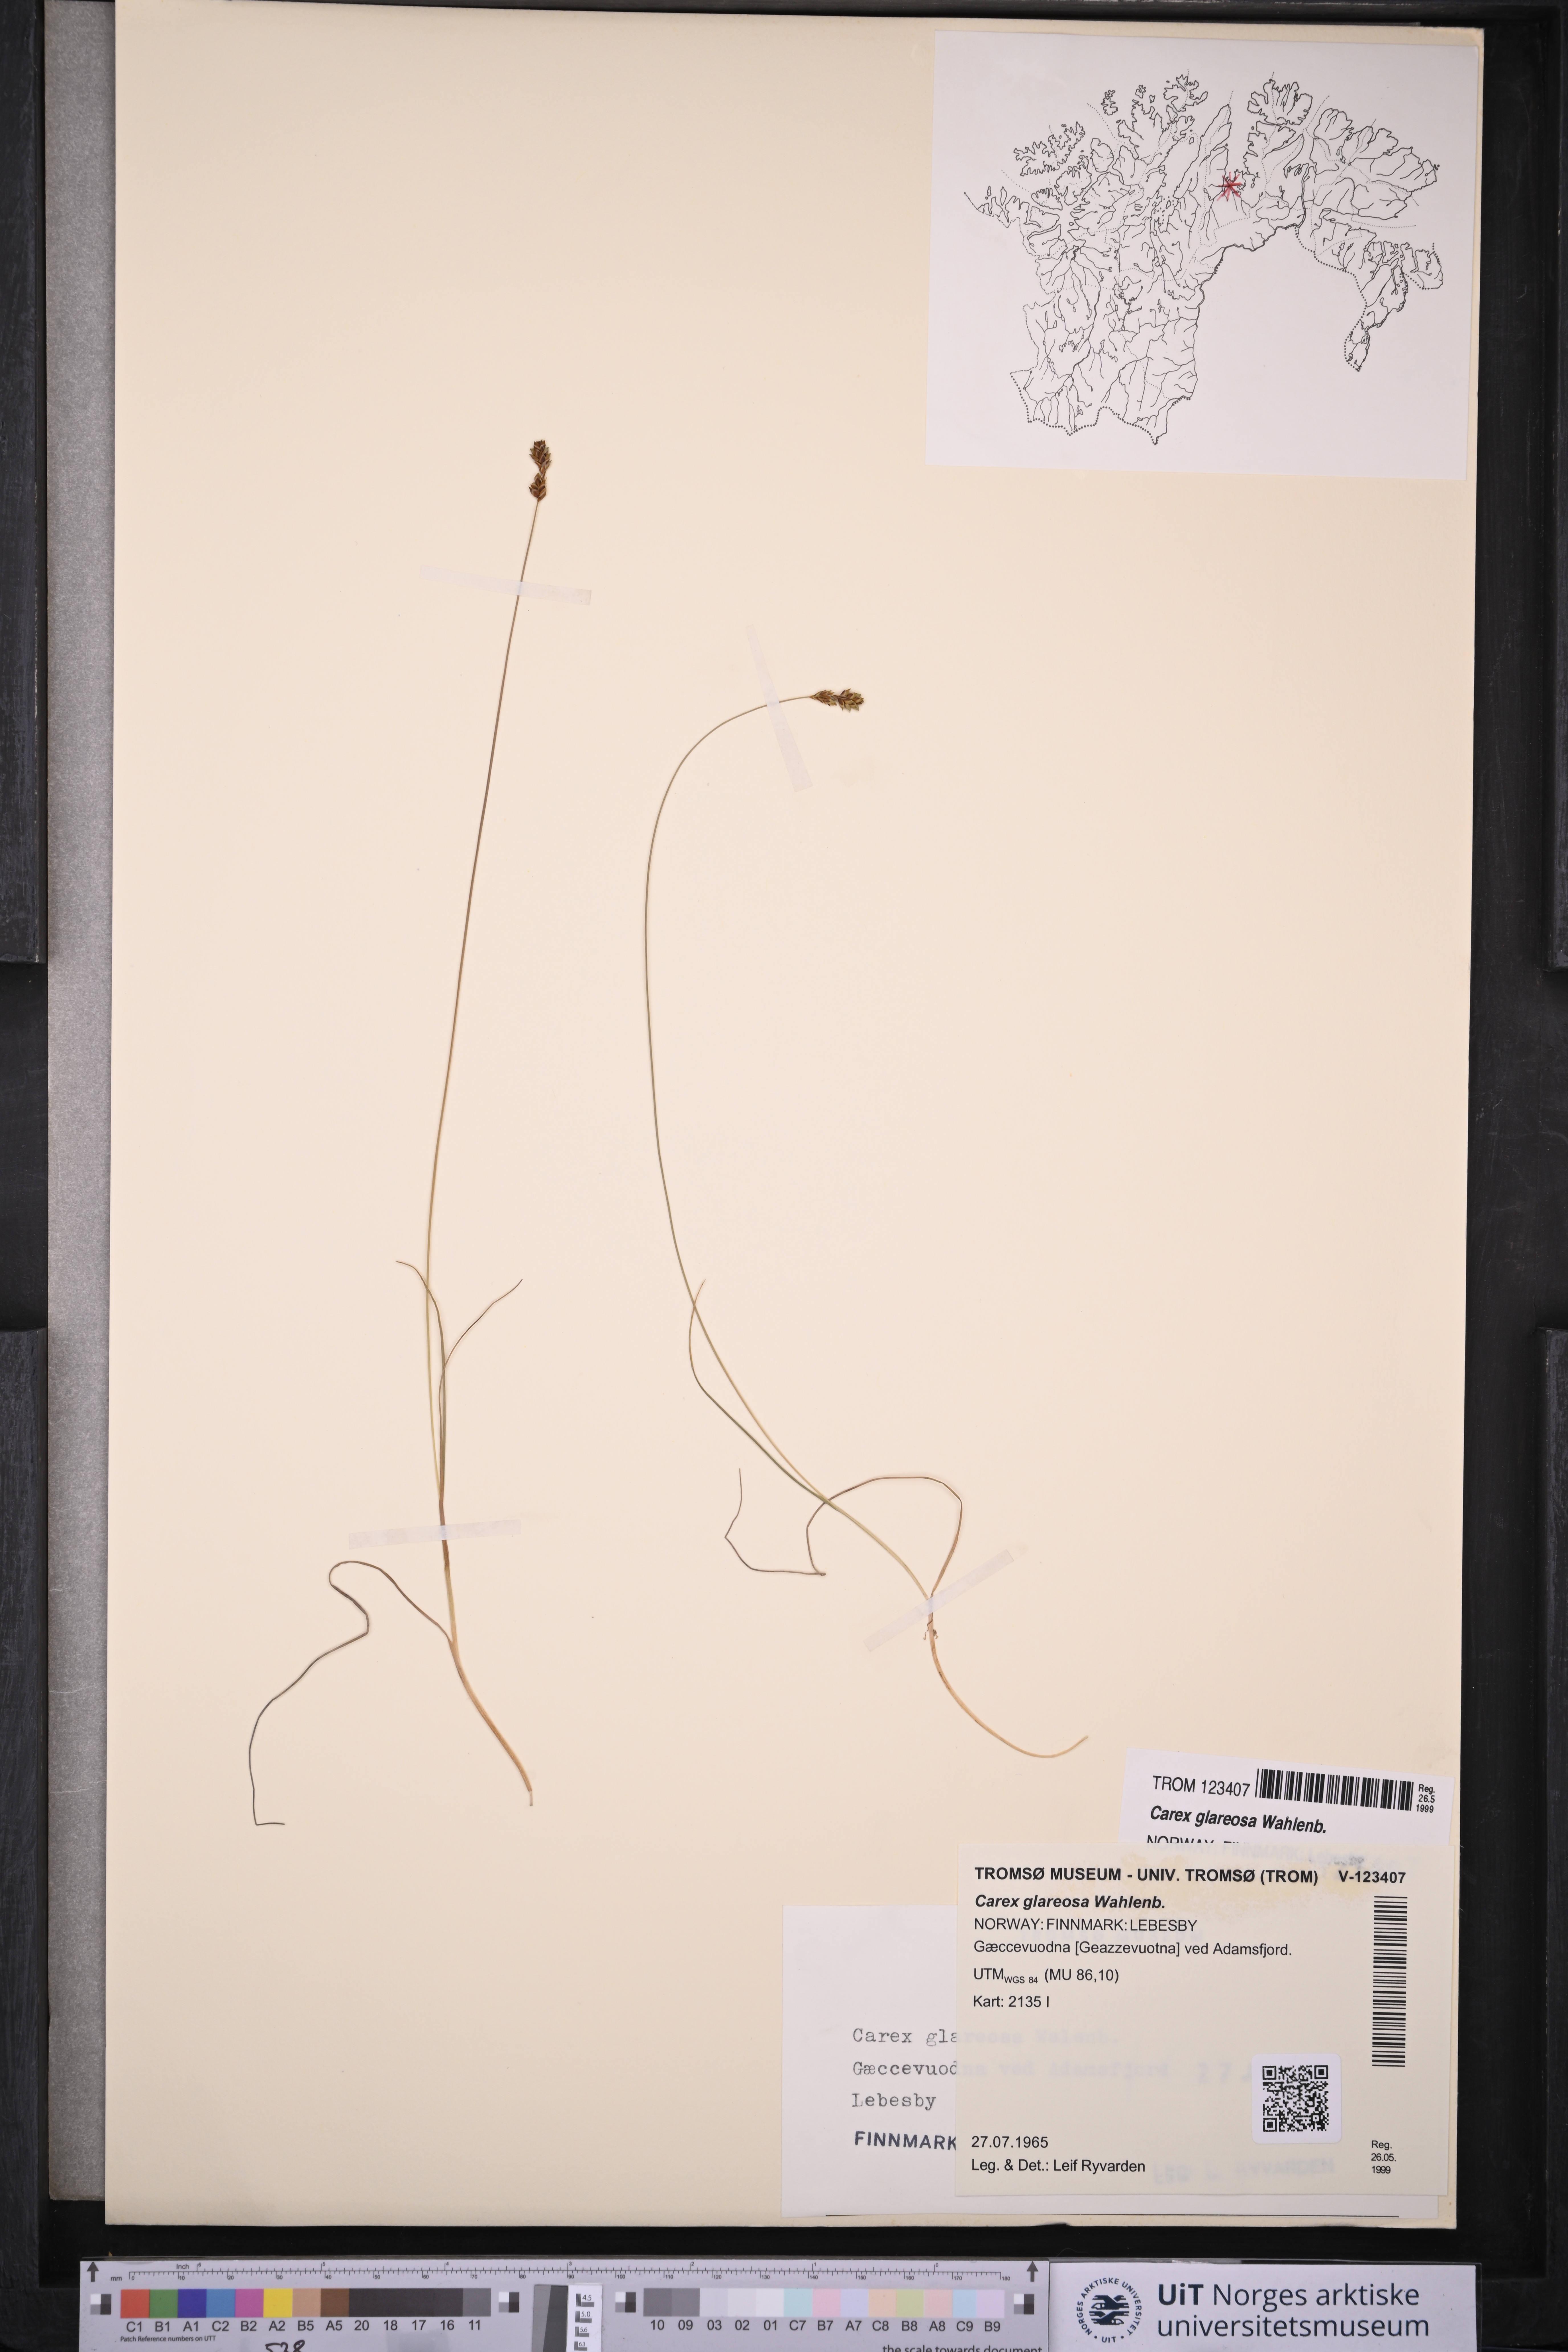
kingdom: Plantae
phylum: Tracheophyta
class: Liliopsida
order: Poales
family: Cyperaceae
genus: Carex
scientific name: Carex glareosa
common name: Clustered sedge
